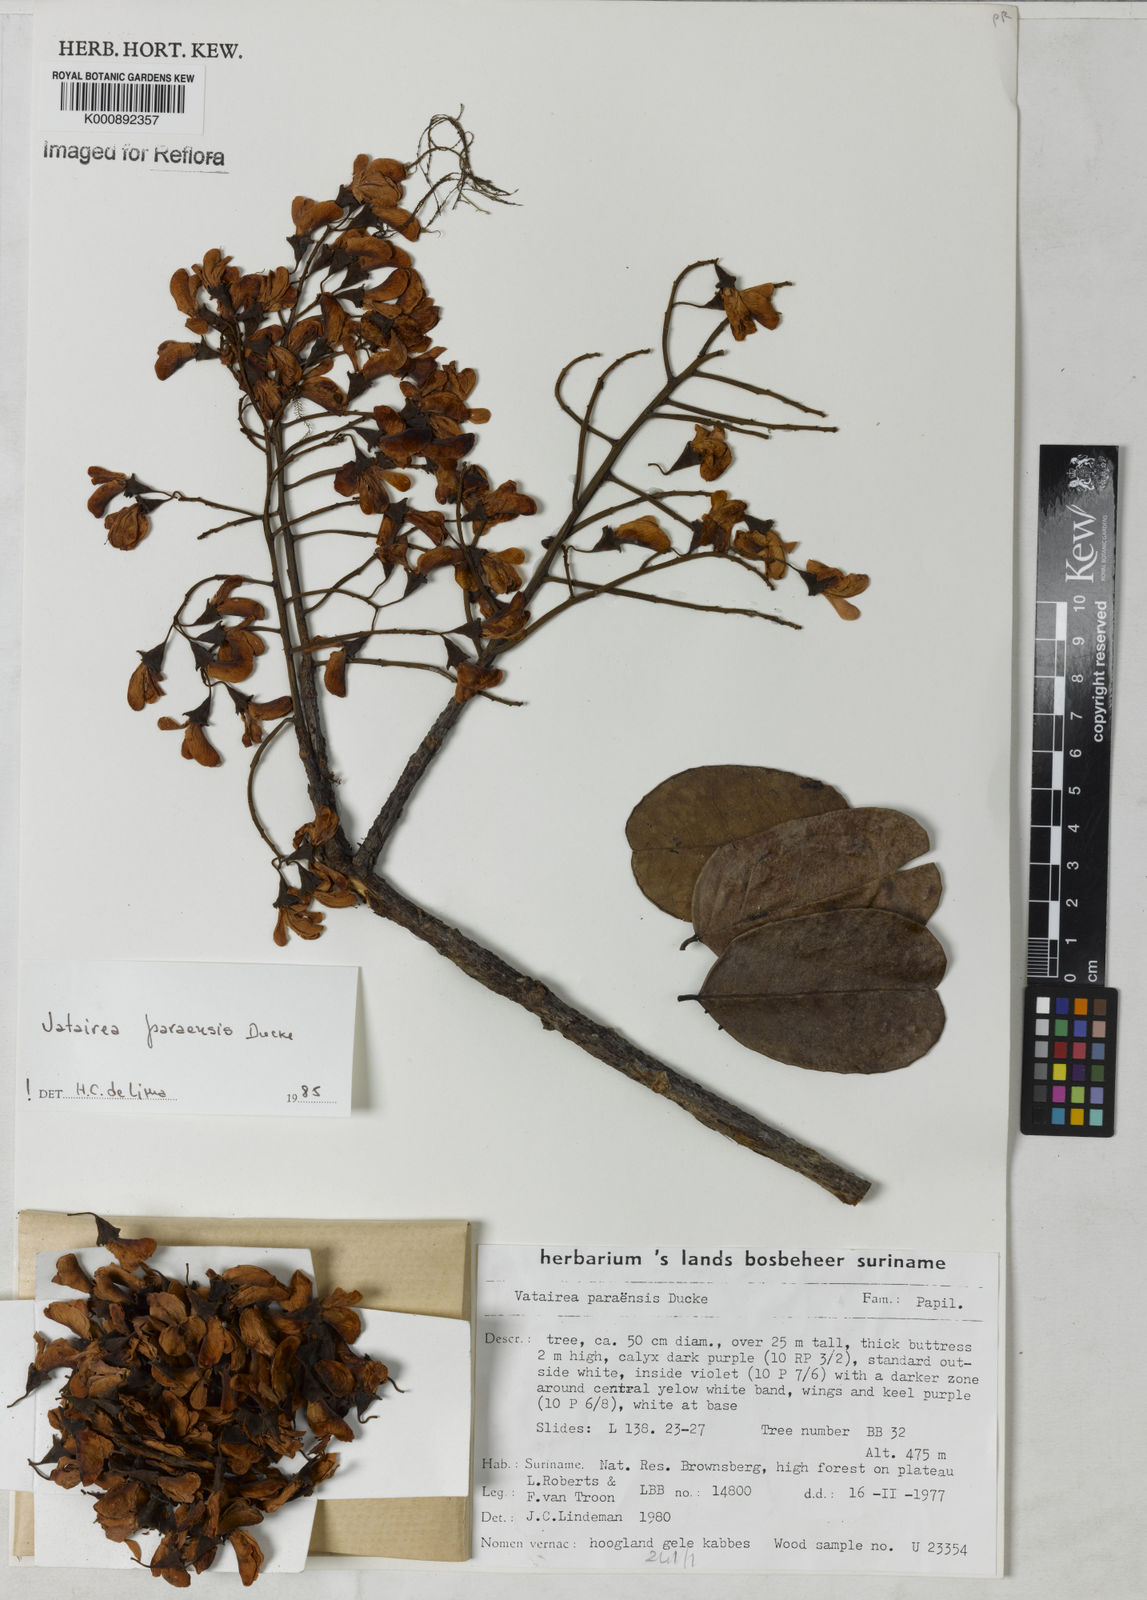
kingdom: Plantae
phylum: Tracheophyta
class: Magnoliopsida
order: Fabales
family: Fabaceae
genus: Vatairea
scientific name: Vatairea paraensis
